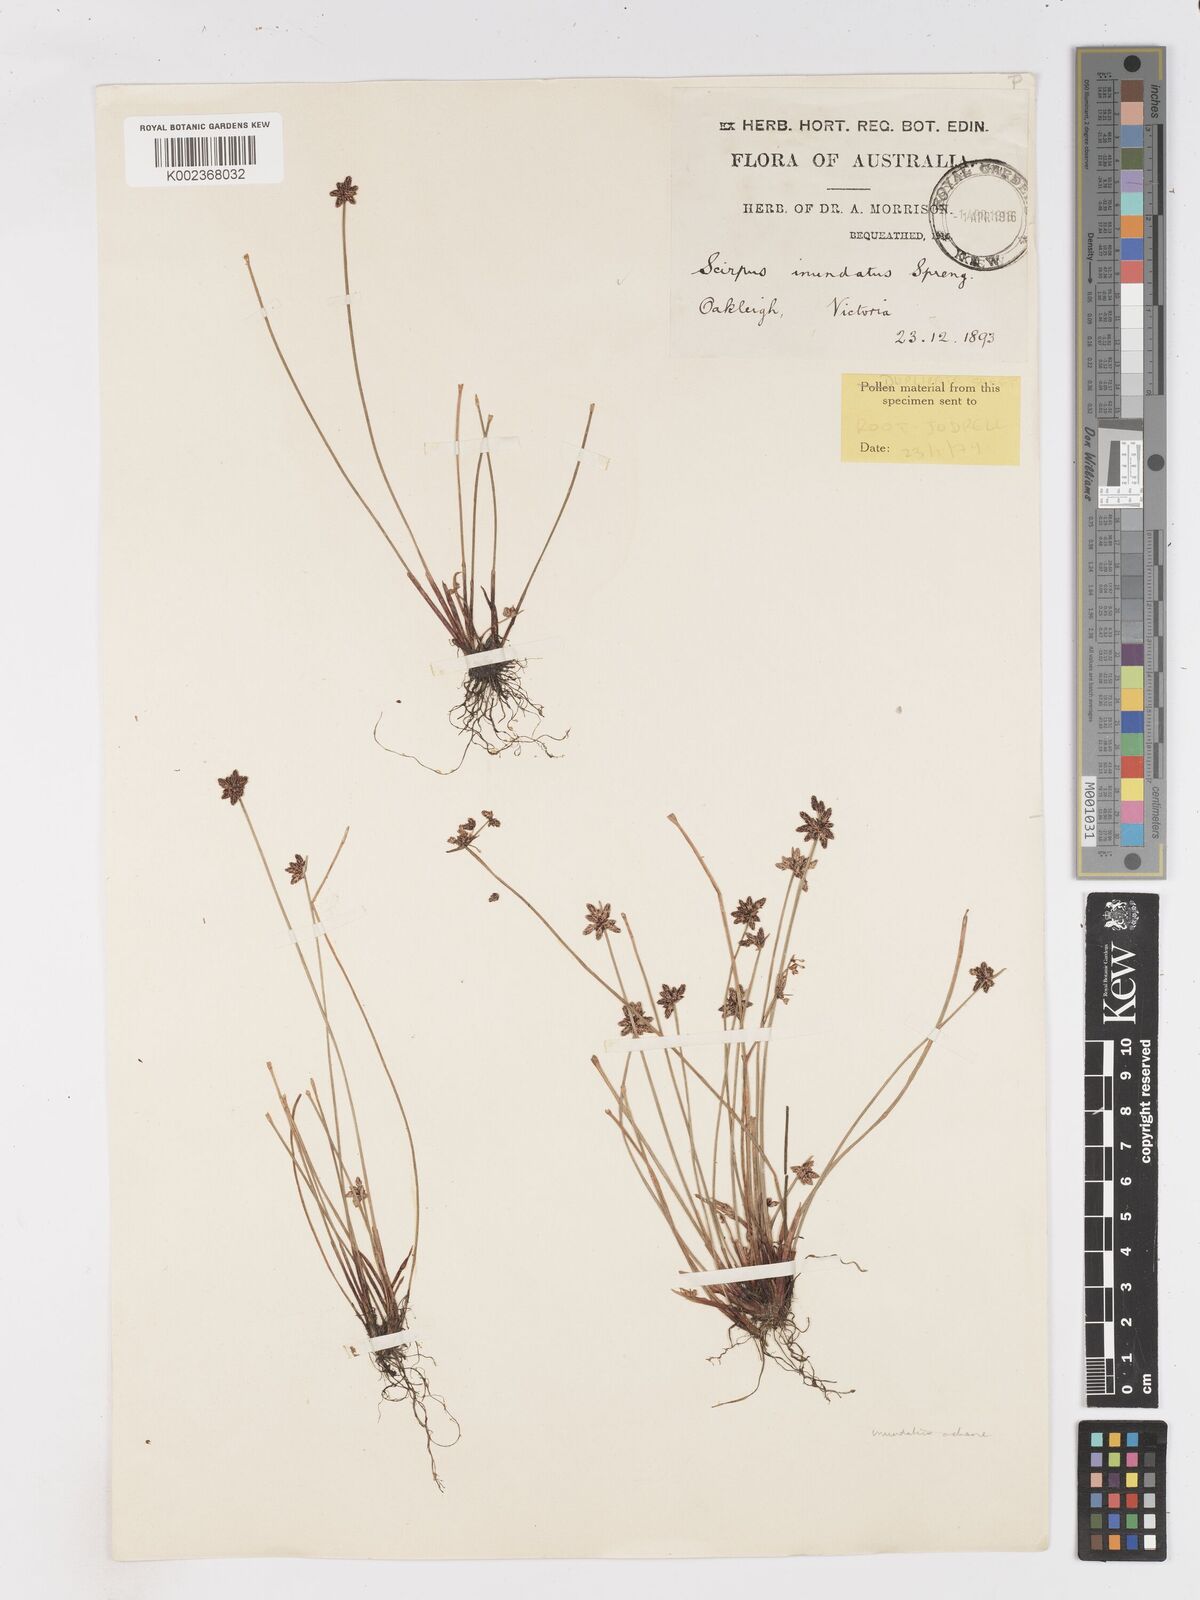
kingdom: Plantae
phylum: Tracheophyta
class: Liliopsida
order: Poales
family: Cyperaceae
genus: Isolepis
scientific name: Isolepis inundata
